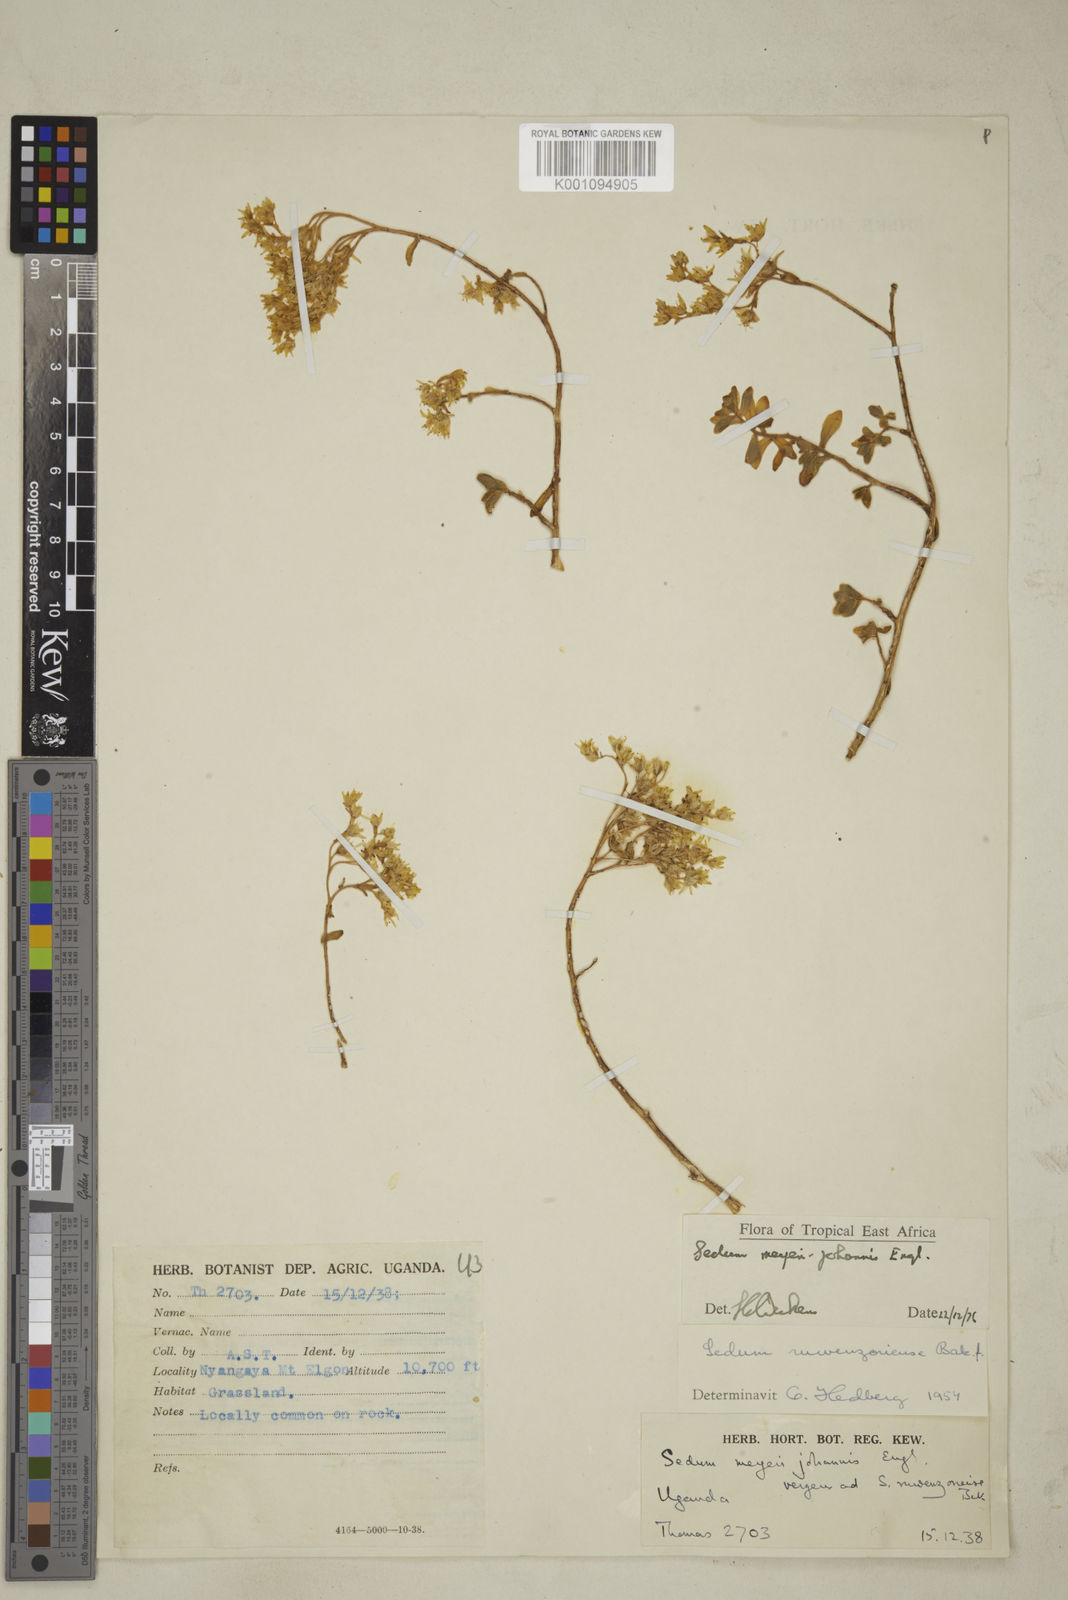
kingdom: Plantae
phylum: Tracheophyta
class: Magnoliopsida
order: Saxifragales
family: Crassulaceae
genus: Sedum
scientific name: Sedum meyeri-johannis
